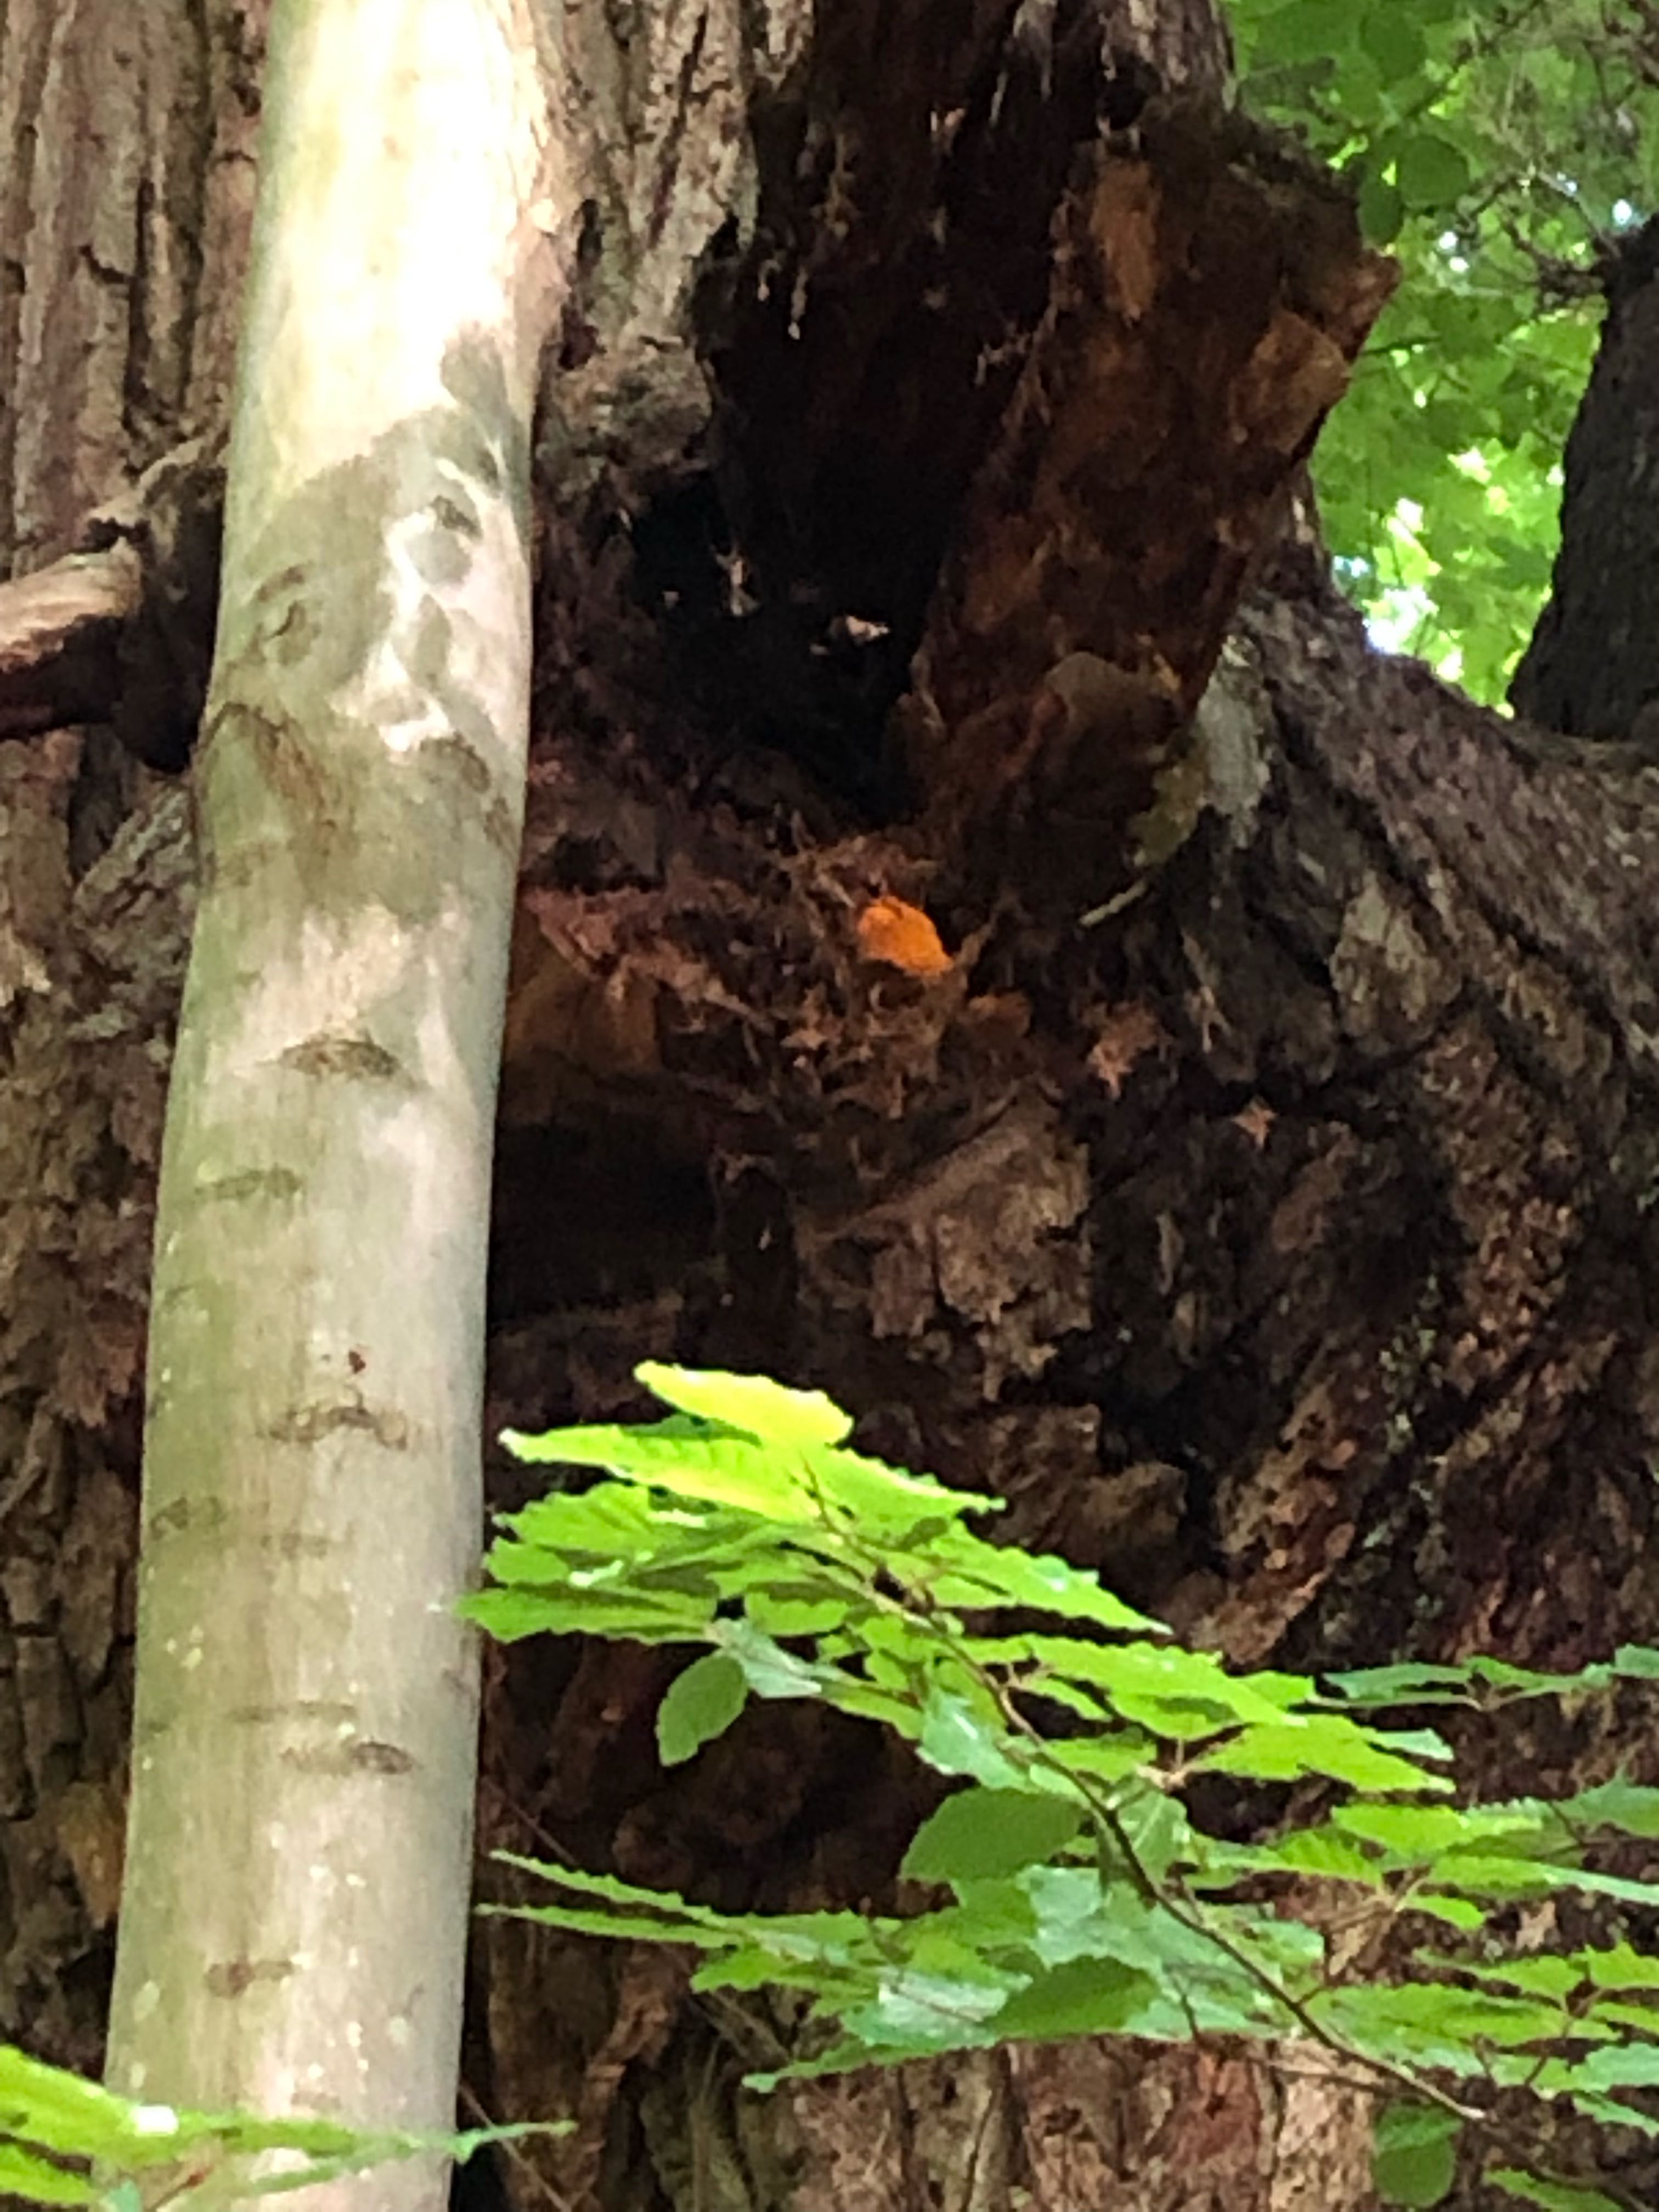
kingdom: Fungi
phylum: Basidiomycota
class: Agaricomycetes
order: Polyporales
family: Phanerochaetaceae
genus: Hapalopilus
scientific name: Hapalopilus croceus
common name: safrangul pragtporesvamp
